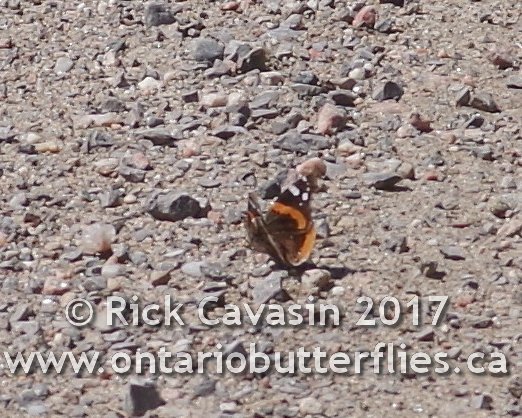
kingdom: Animalia
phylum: Arthropoda
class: Insecta
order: Lepidoptera
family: Nymphalidae
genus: Vanessa
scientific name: Vanessa atalanta
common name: Red Admiral
